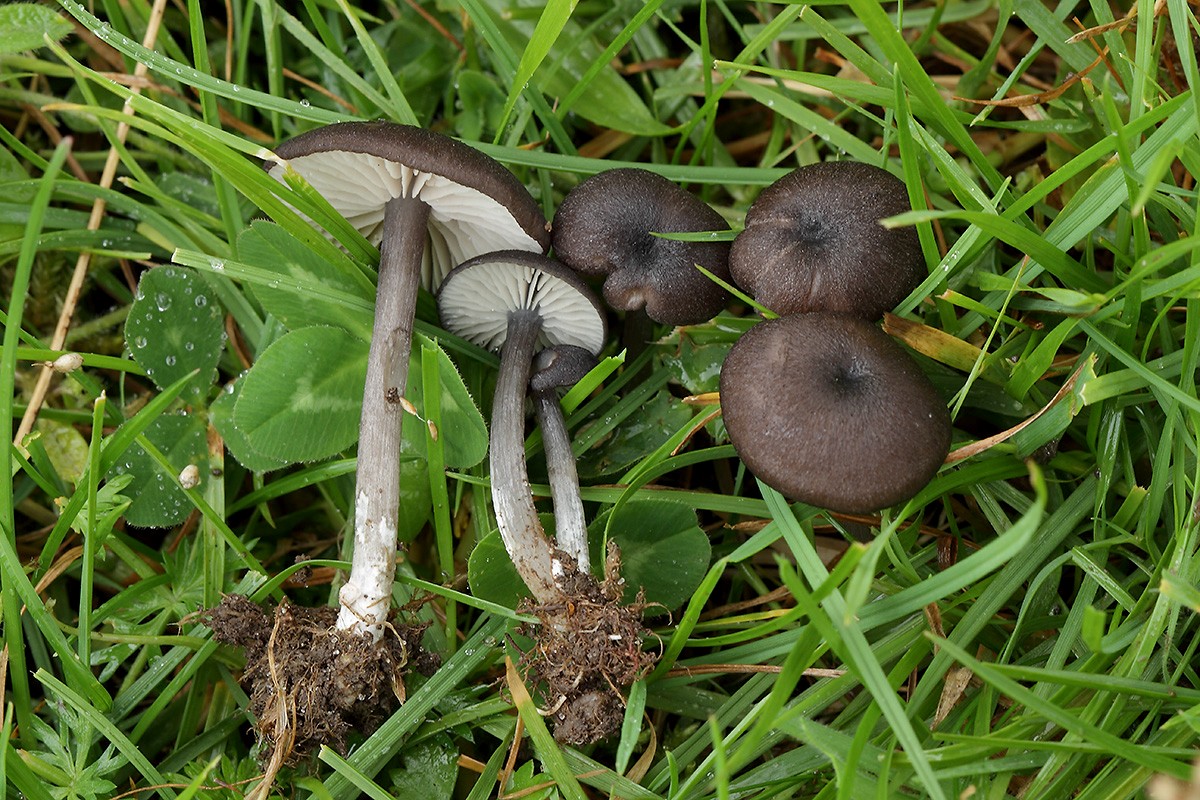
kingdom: Fungi
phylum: Basidiomycota
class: Agaricomycetes
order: Agaricales
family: Entolomataceae
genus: Entoloma
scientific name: Entoloma porphyrogriseum
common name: porfyrgrå rødblad
